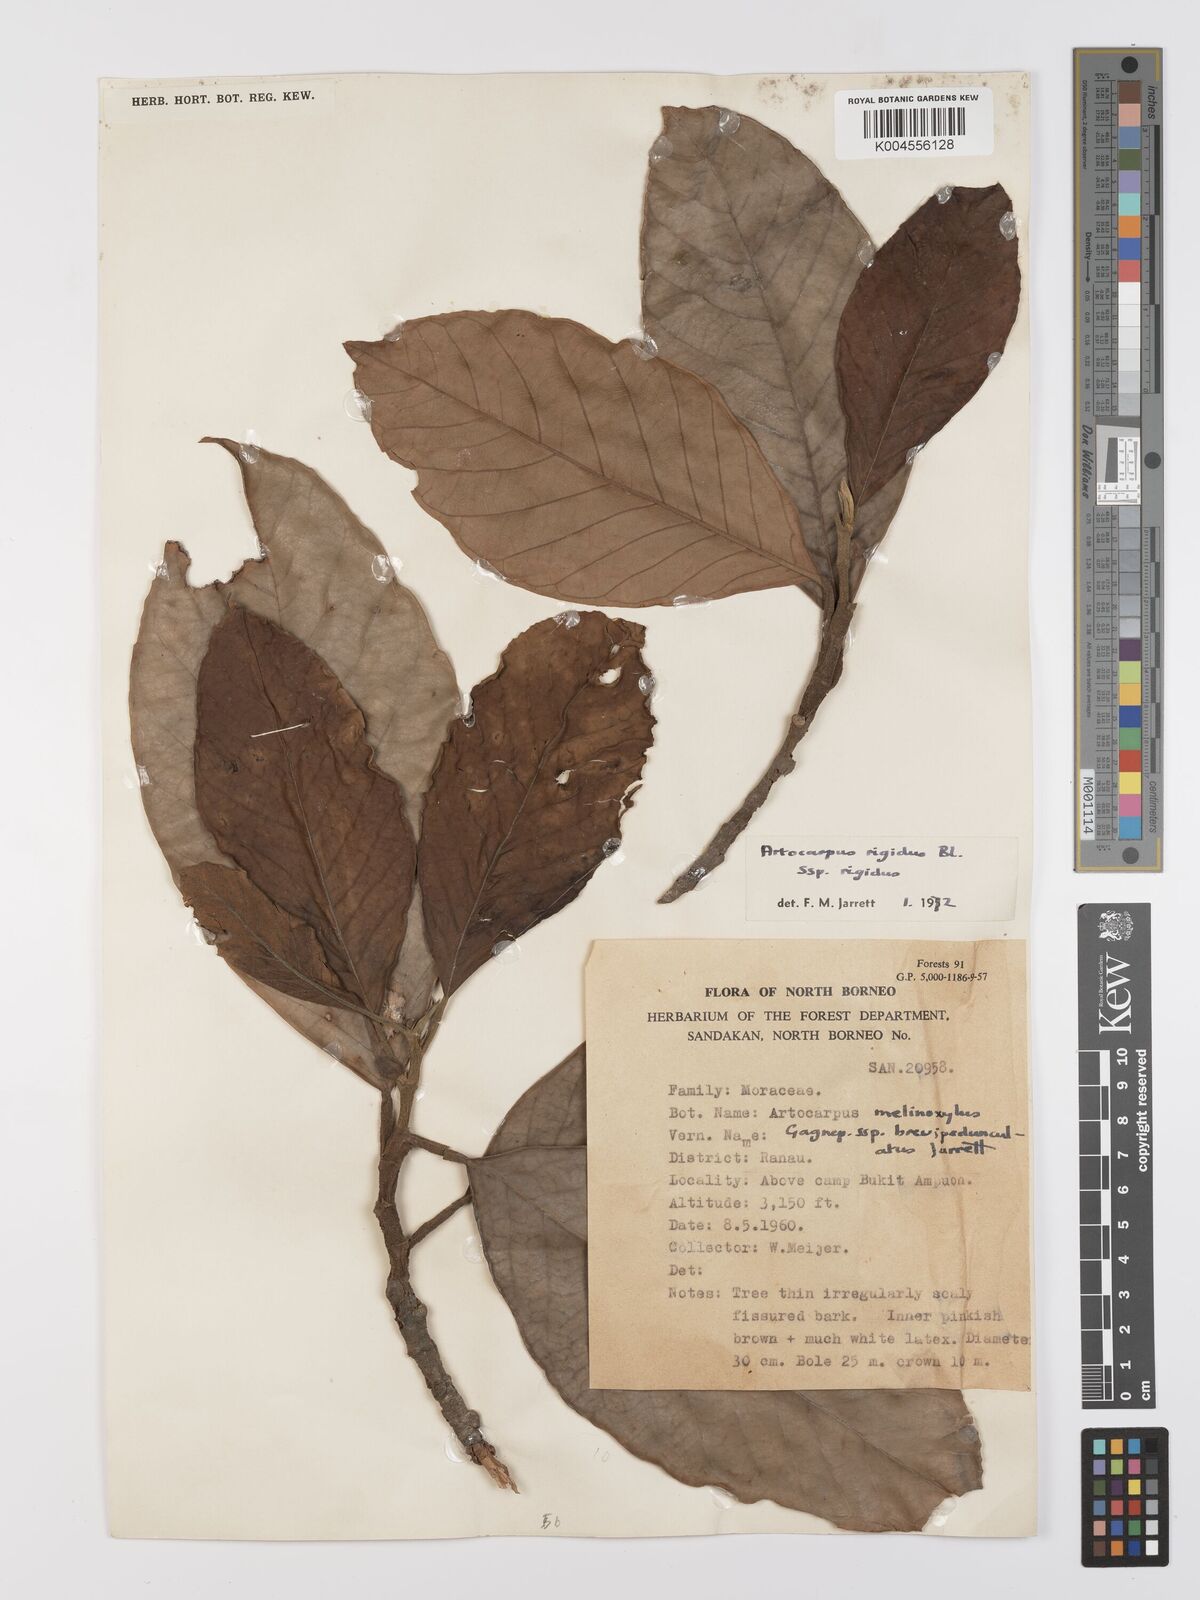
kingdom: Plantae
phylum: Tracheophyta
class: Magnoliopsida
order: Rosales
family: Moraceae
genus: Artocarpus
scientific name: Artocarpus
